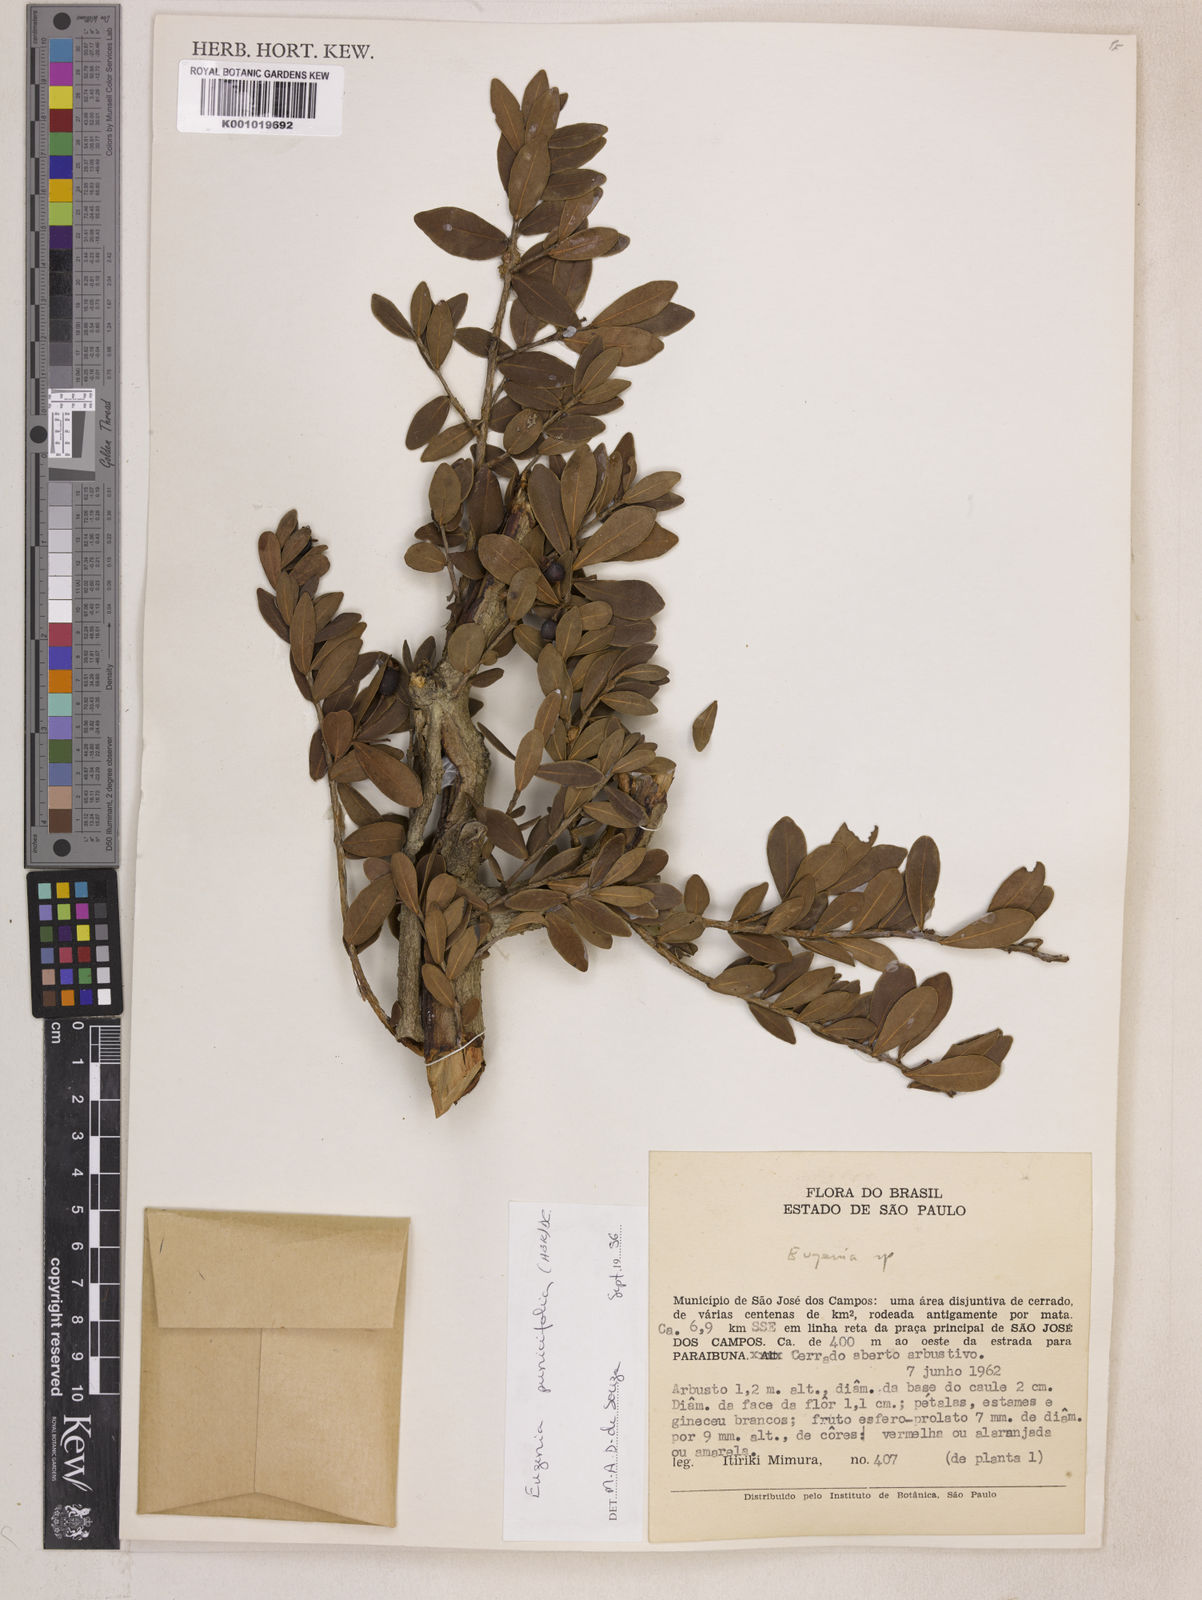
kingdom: Plantae
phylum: Tracheophyta
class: Magnoliopsida
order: Myrtales
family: Myrtaceae
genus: Eugenia
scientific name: Eugenia punicifolia
